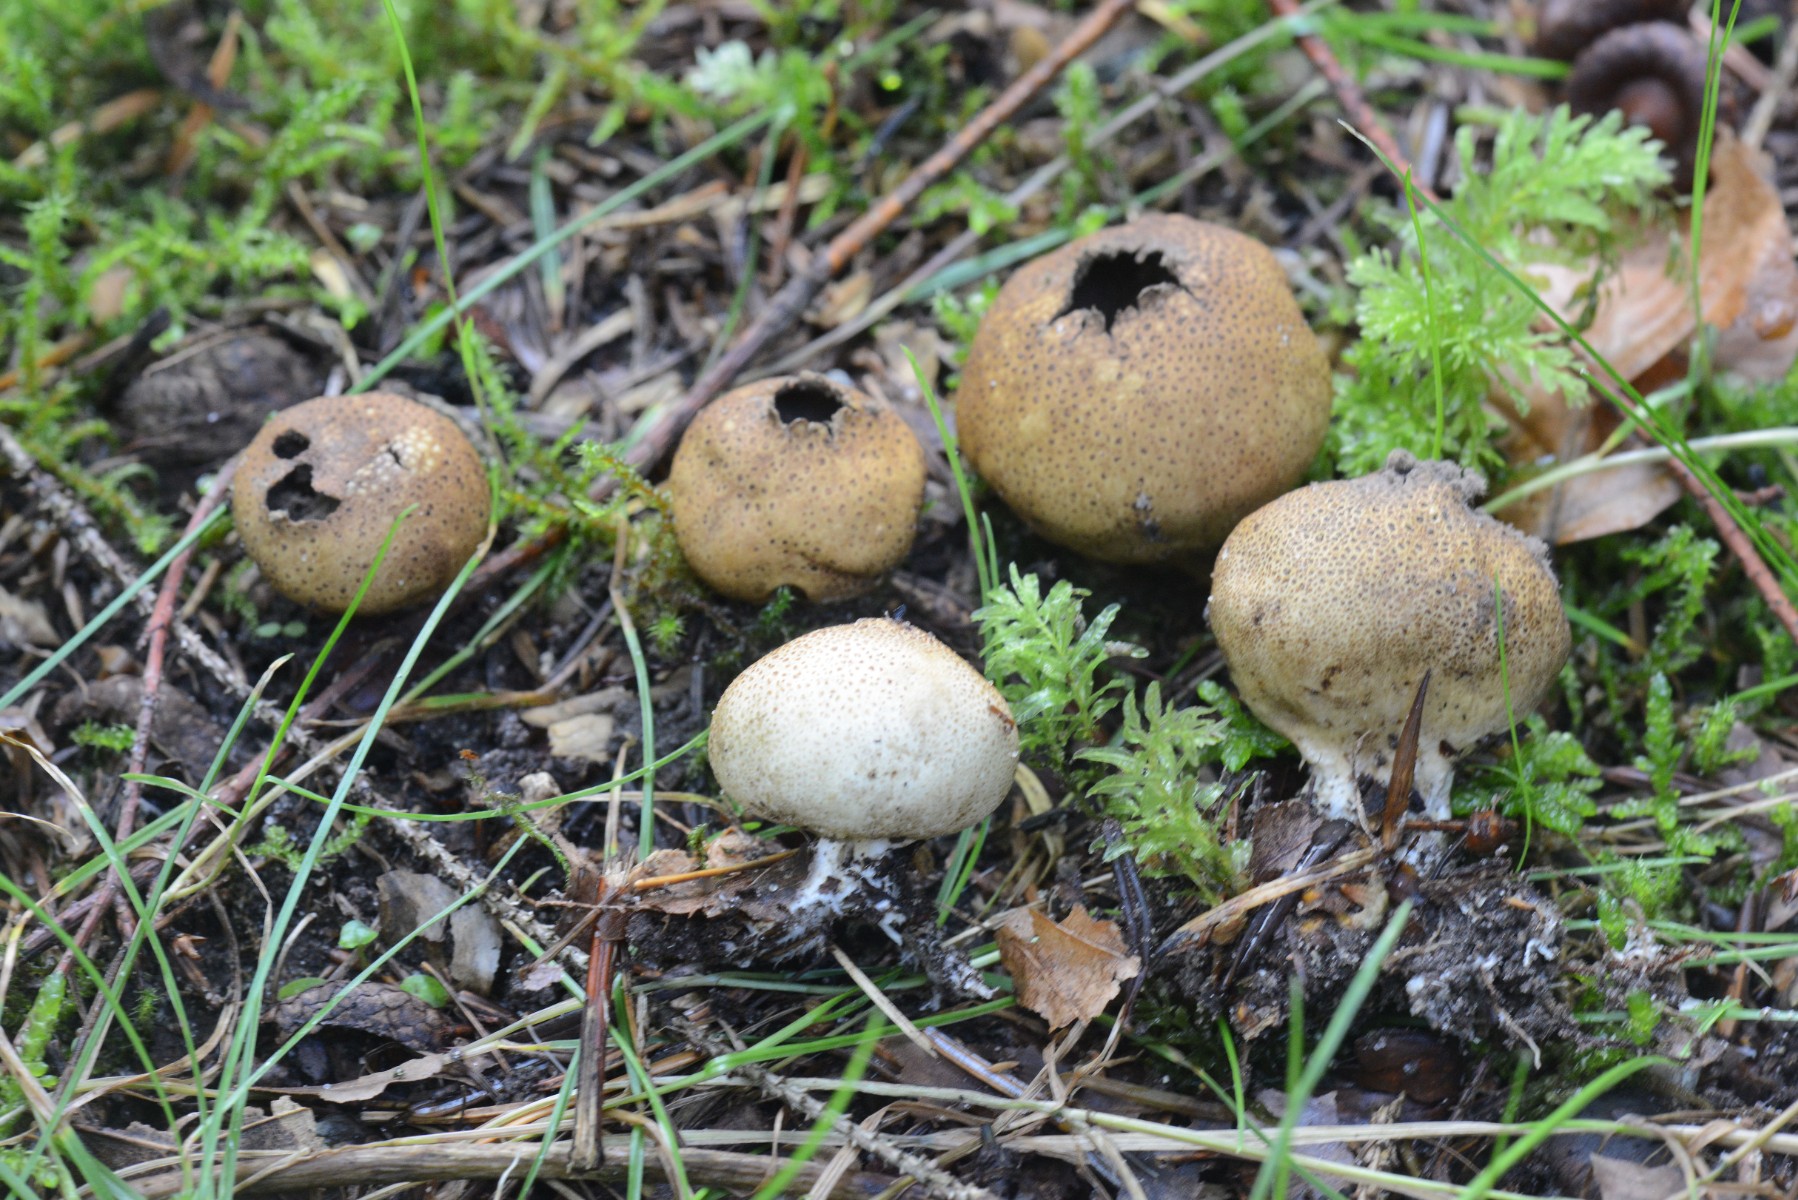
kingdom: Fungi
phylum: Basidiomycota
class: Agaricomycetes
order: Boletales
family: Sclerodermataceae
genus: Scleroderma
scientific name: Scleroderma areolatum
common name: plettet bruskbold
